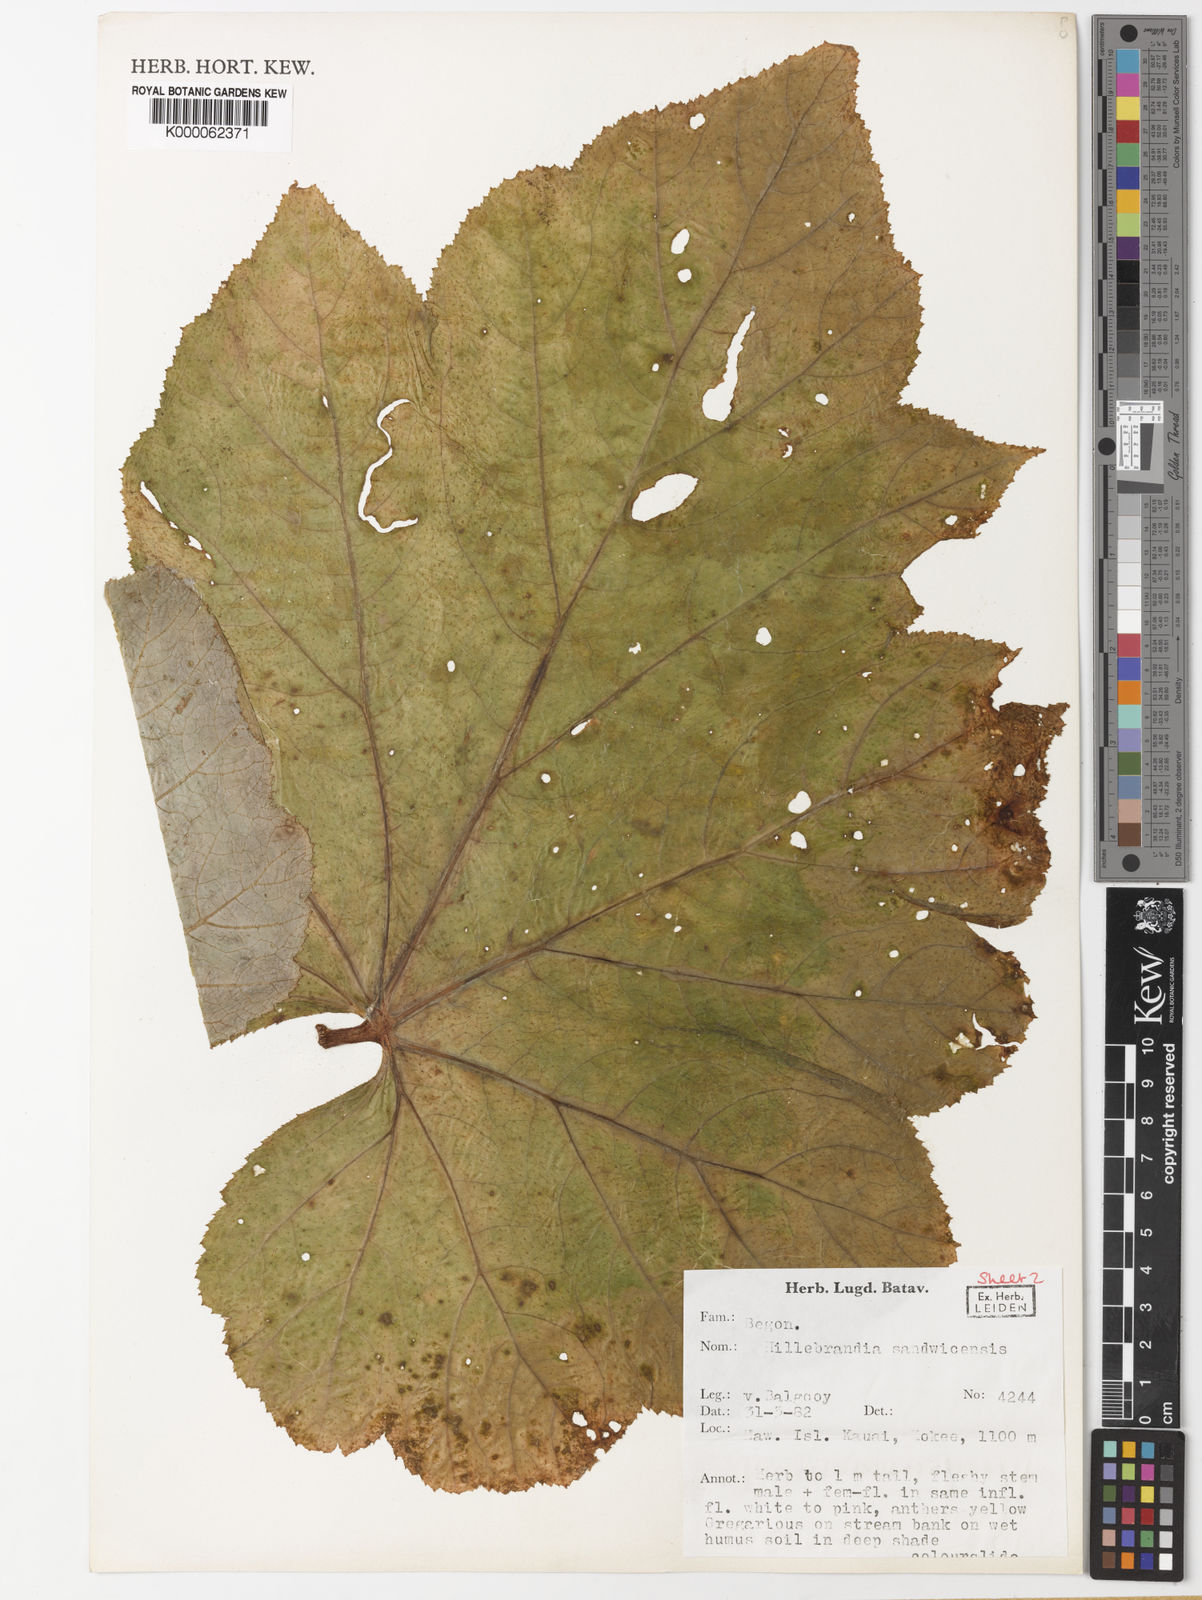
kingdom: Plantae
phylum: Tracheophyta
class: Magnoliopsida
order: Cucurbitales
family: Begoniaceae
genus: Hillebrandia
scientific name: Hillebrandia sandwicensis
